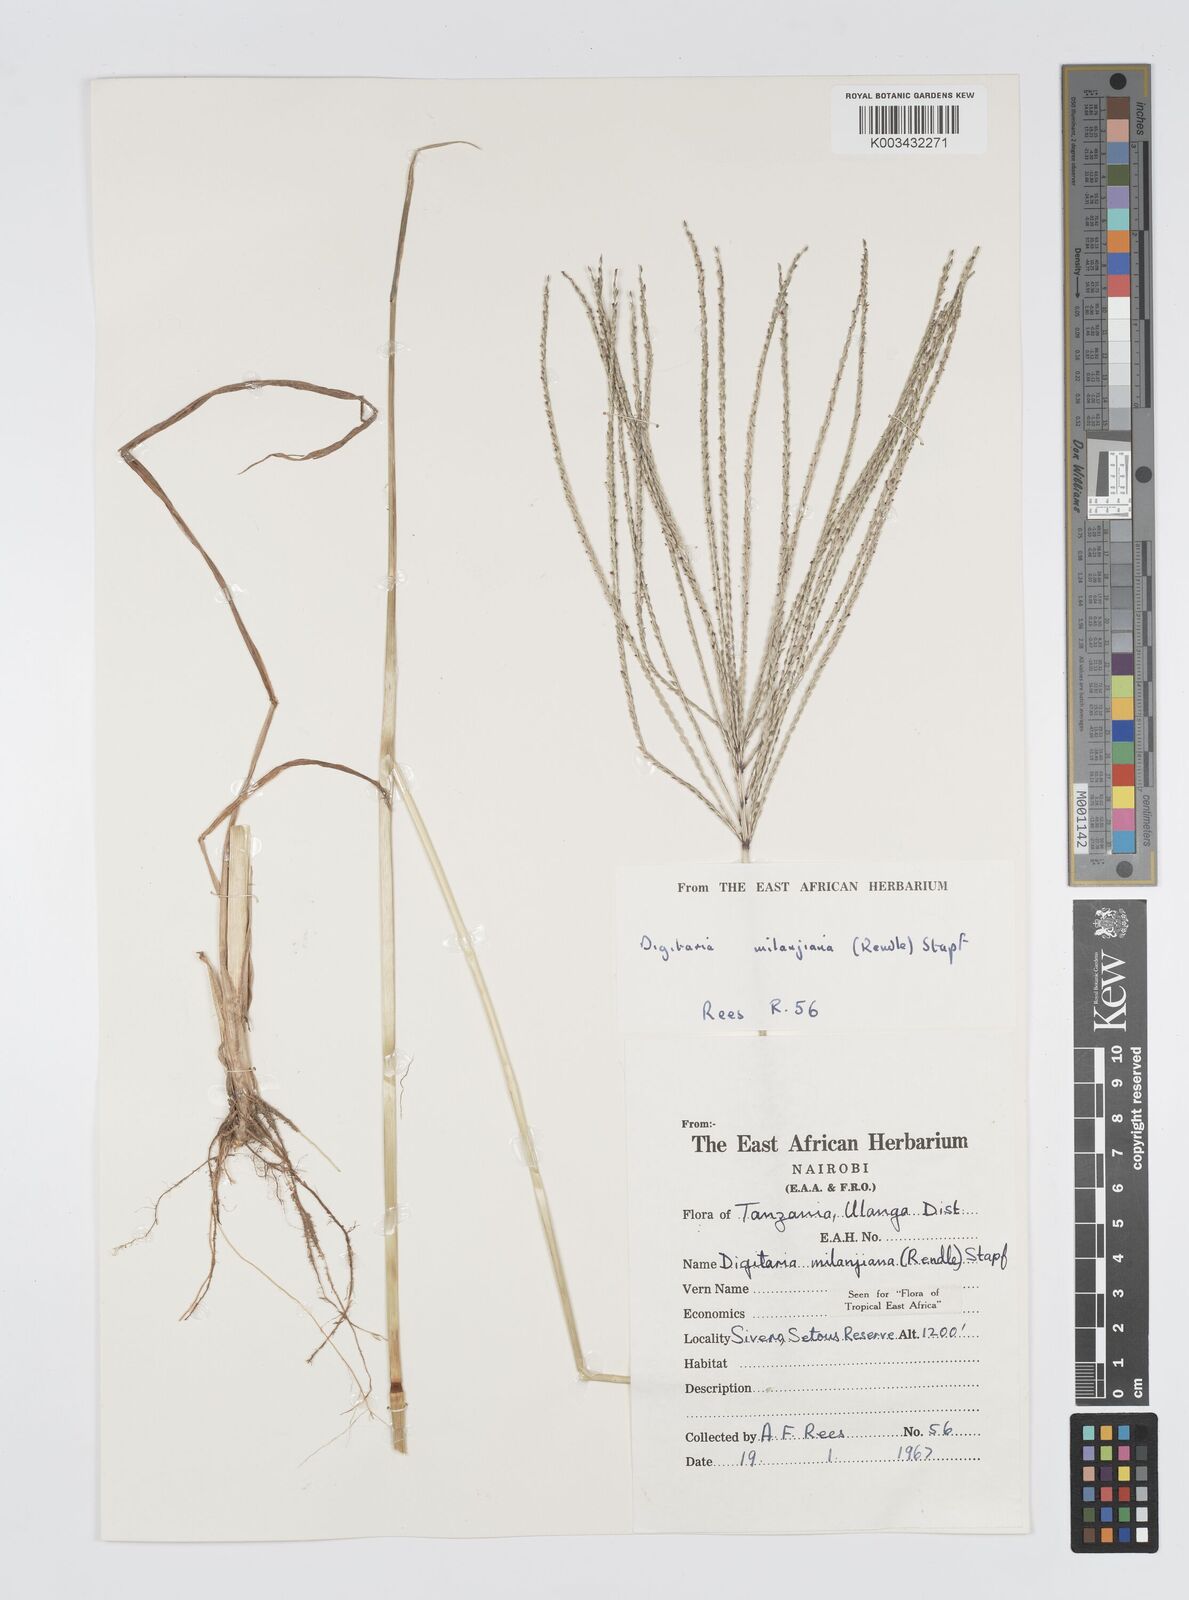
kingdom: Plantae
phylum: Tracheophyta
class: Liliopsida
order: Poales
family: Poaceae
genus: Digitaria
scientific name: Digitaria milanjiana
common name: Madagascar crabgrass
